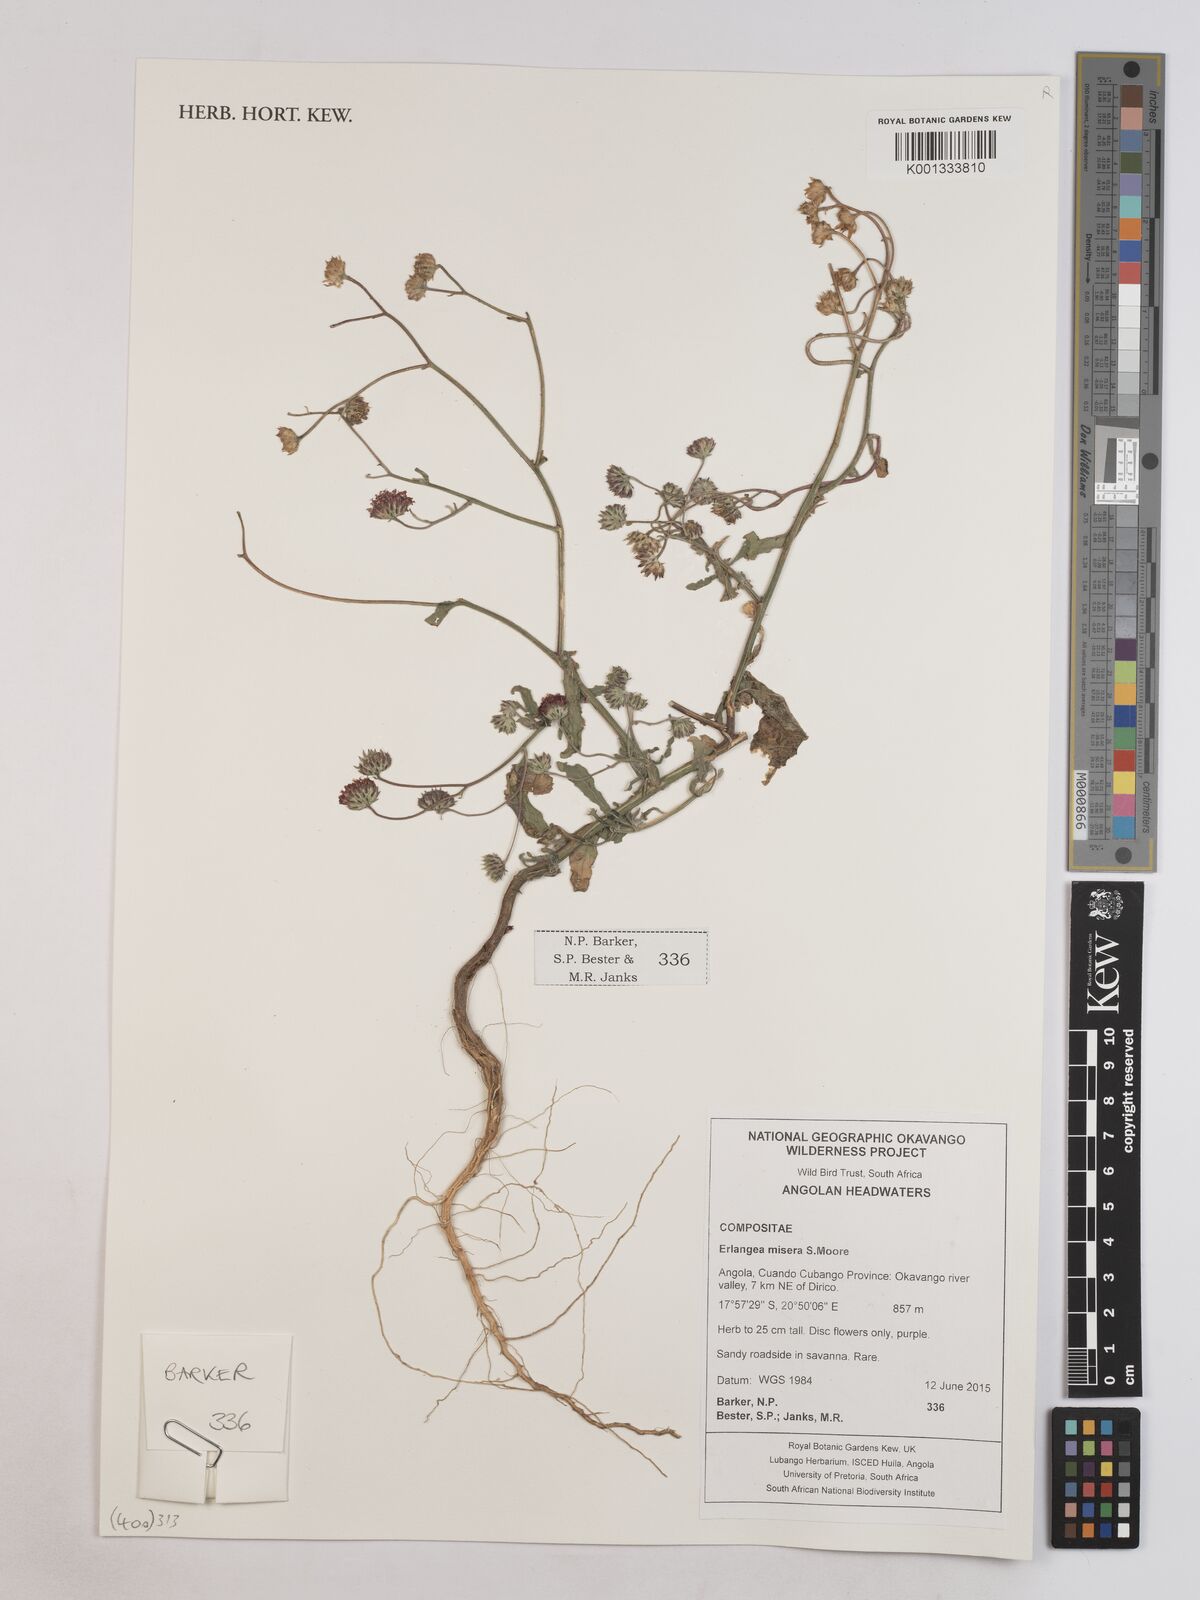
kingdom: Plantae
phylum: Tracheophyta
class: Magnoliopsida
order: Asterales
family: Asteraceae
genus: Erlangea
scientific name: Erlangea misera
